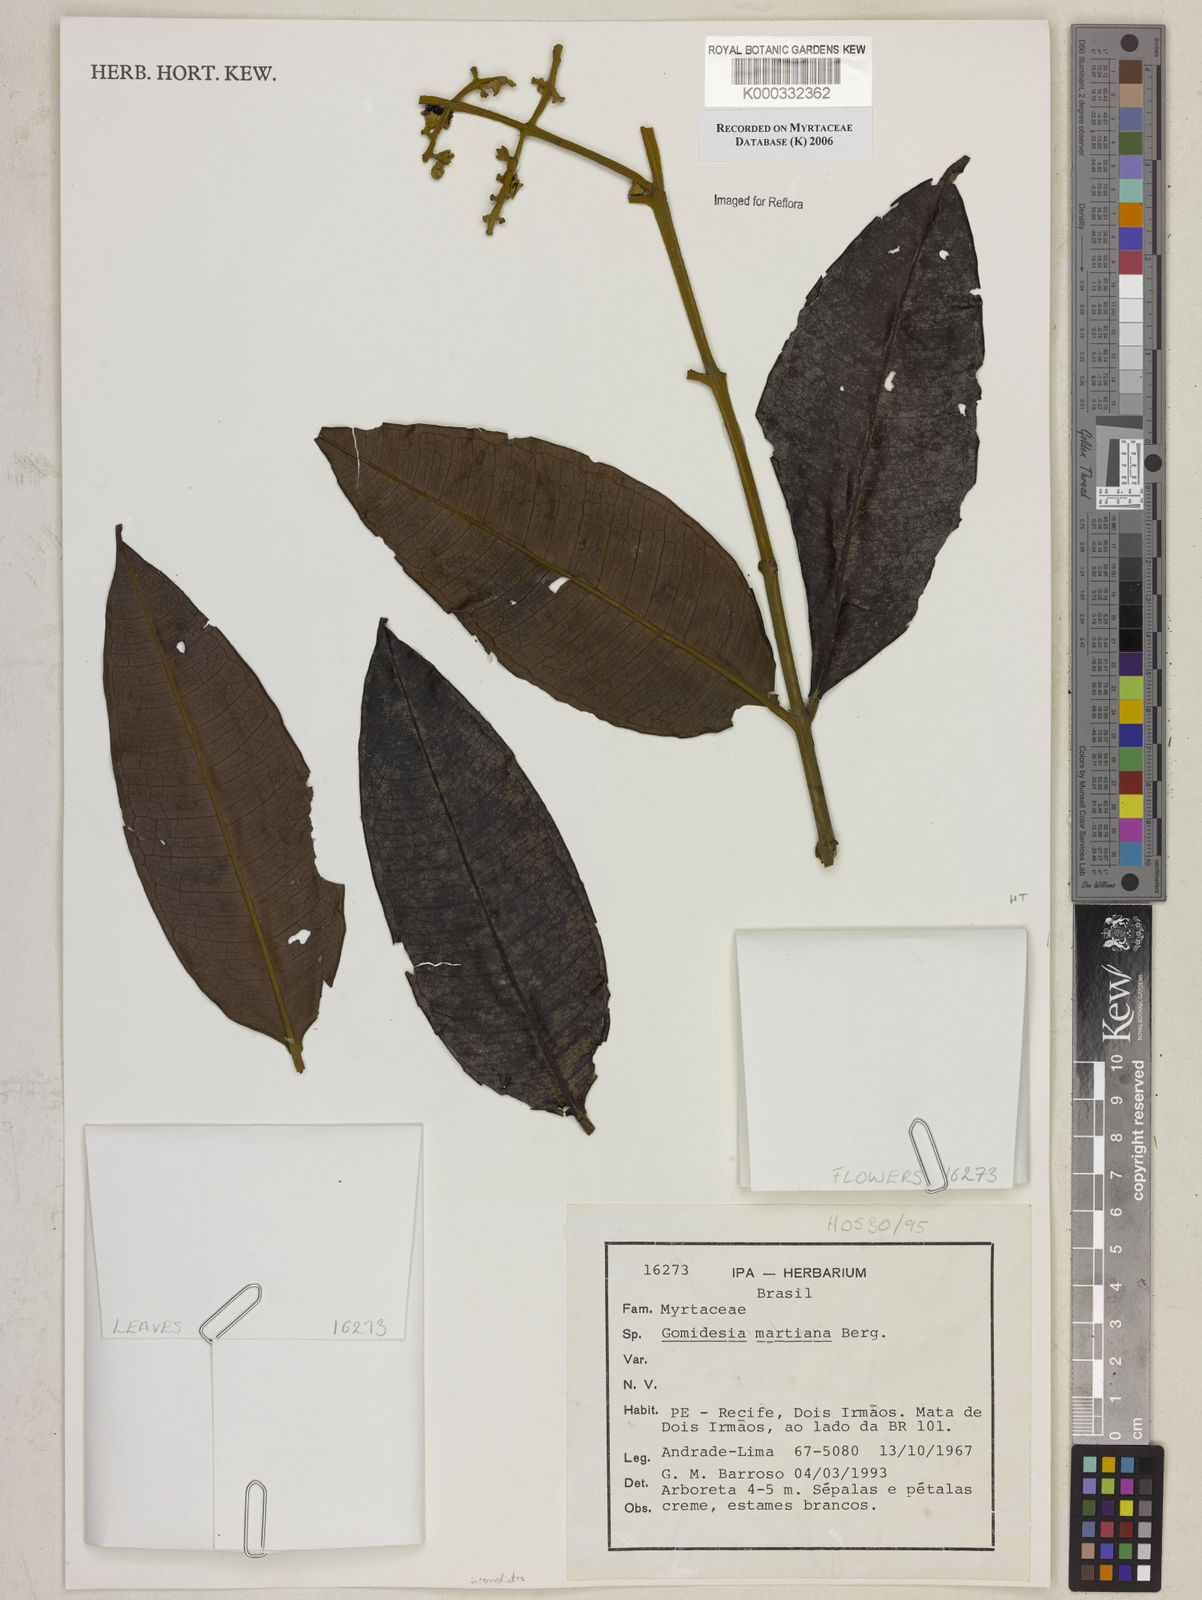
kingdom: Plantae
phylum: Tracheophyta
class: Magnoliopsida
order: Myrtales
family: Myrtaceae
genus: Myrcia
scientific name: Myrcia vittoriana
